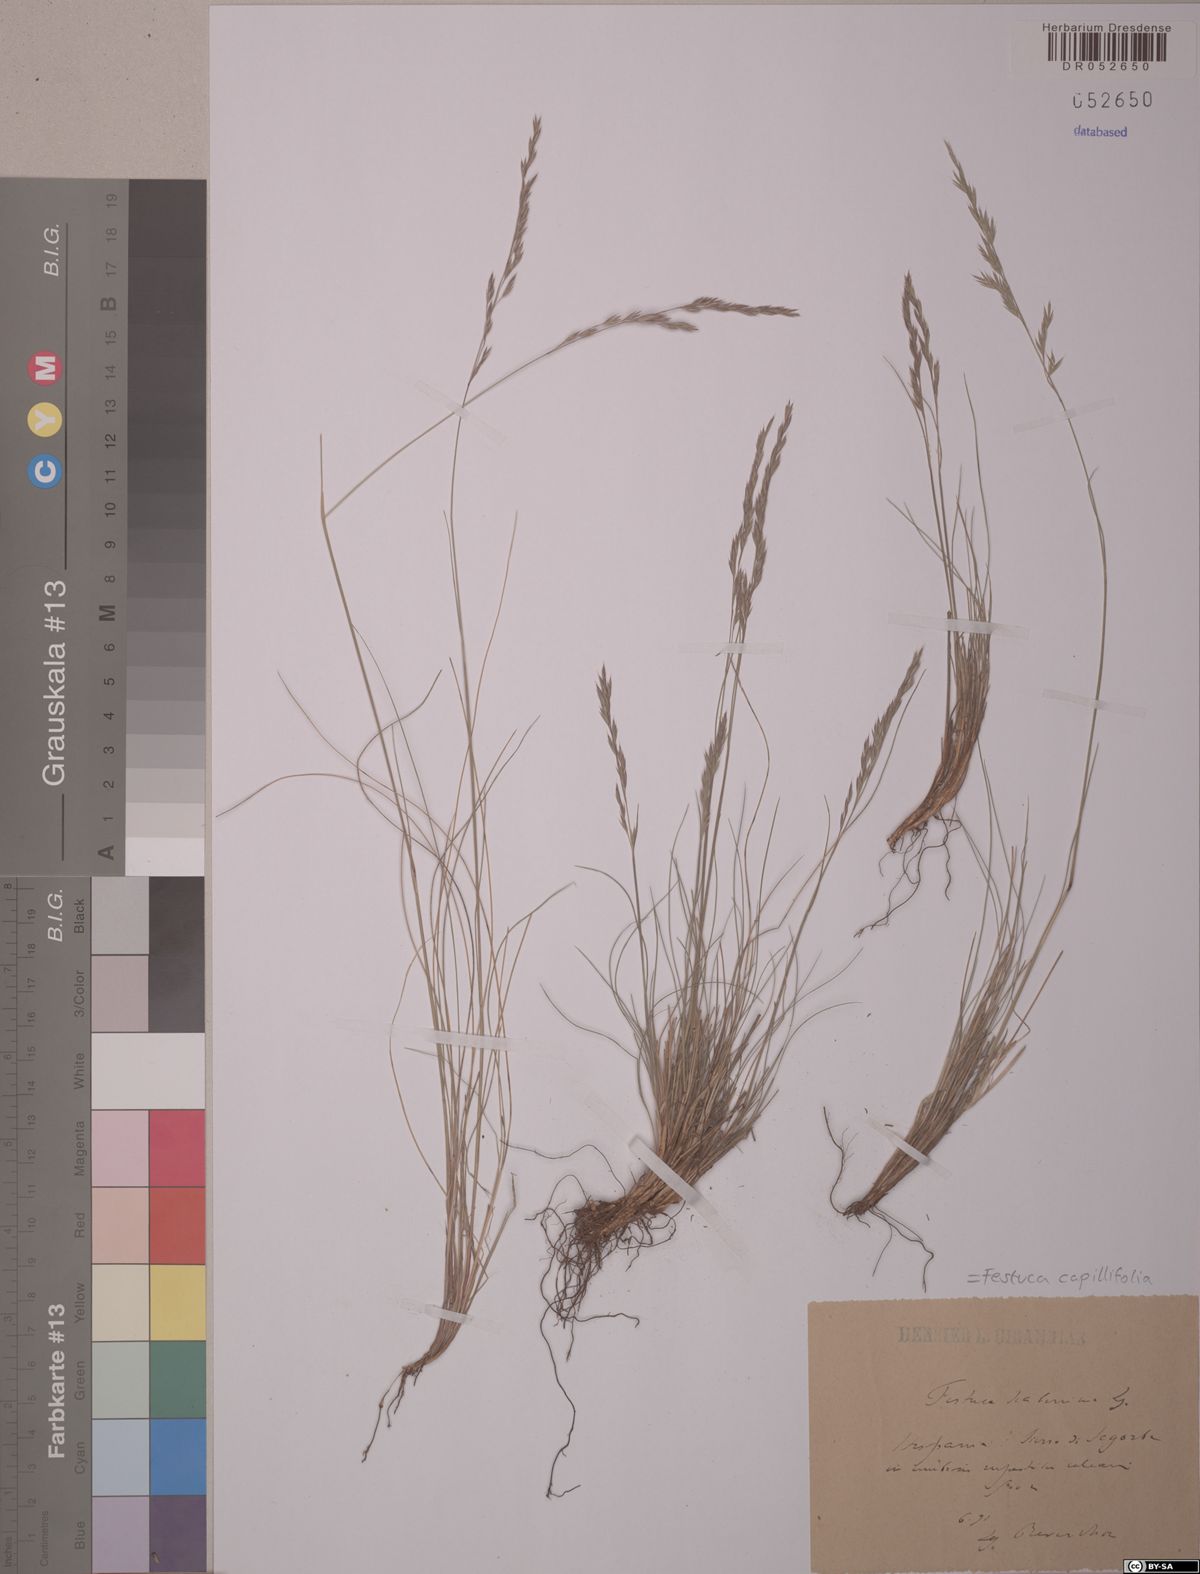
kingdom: Plantae
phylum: Tracheophyta
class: Liliopsida
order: Poales
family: Poaceae
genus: Festuca
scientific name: Festuca capillifolia
